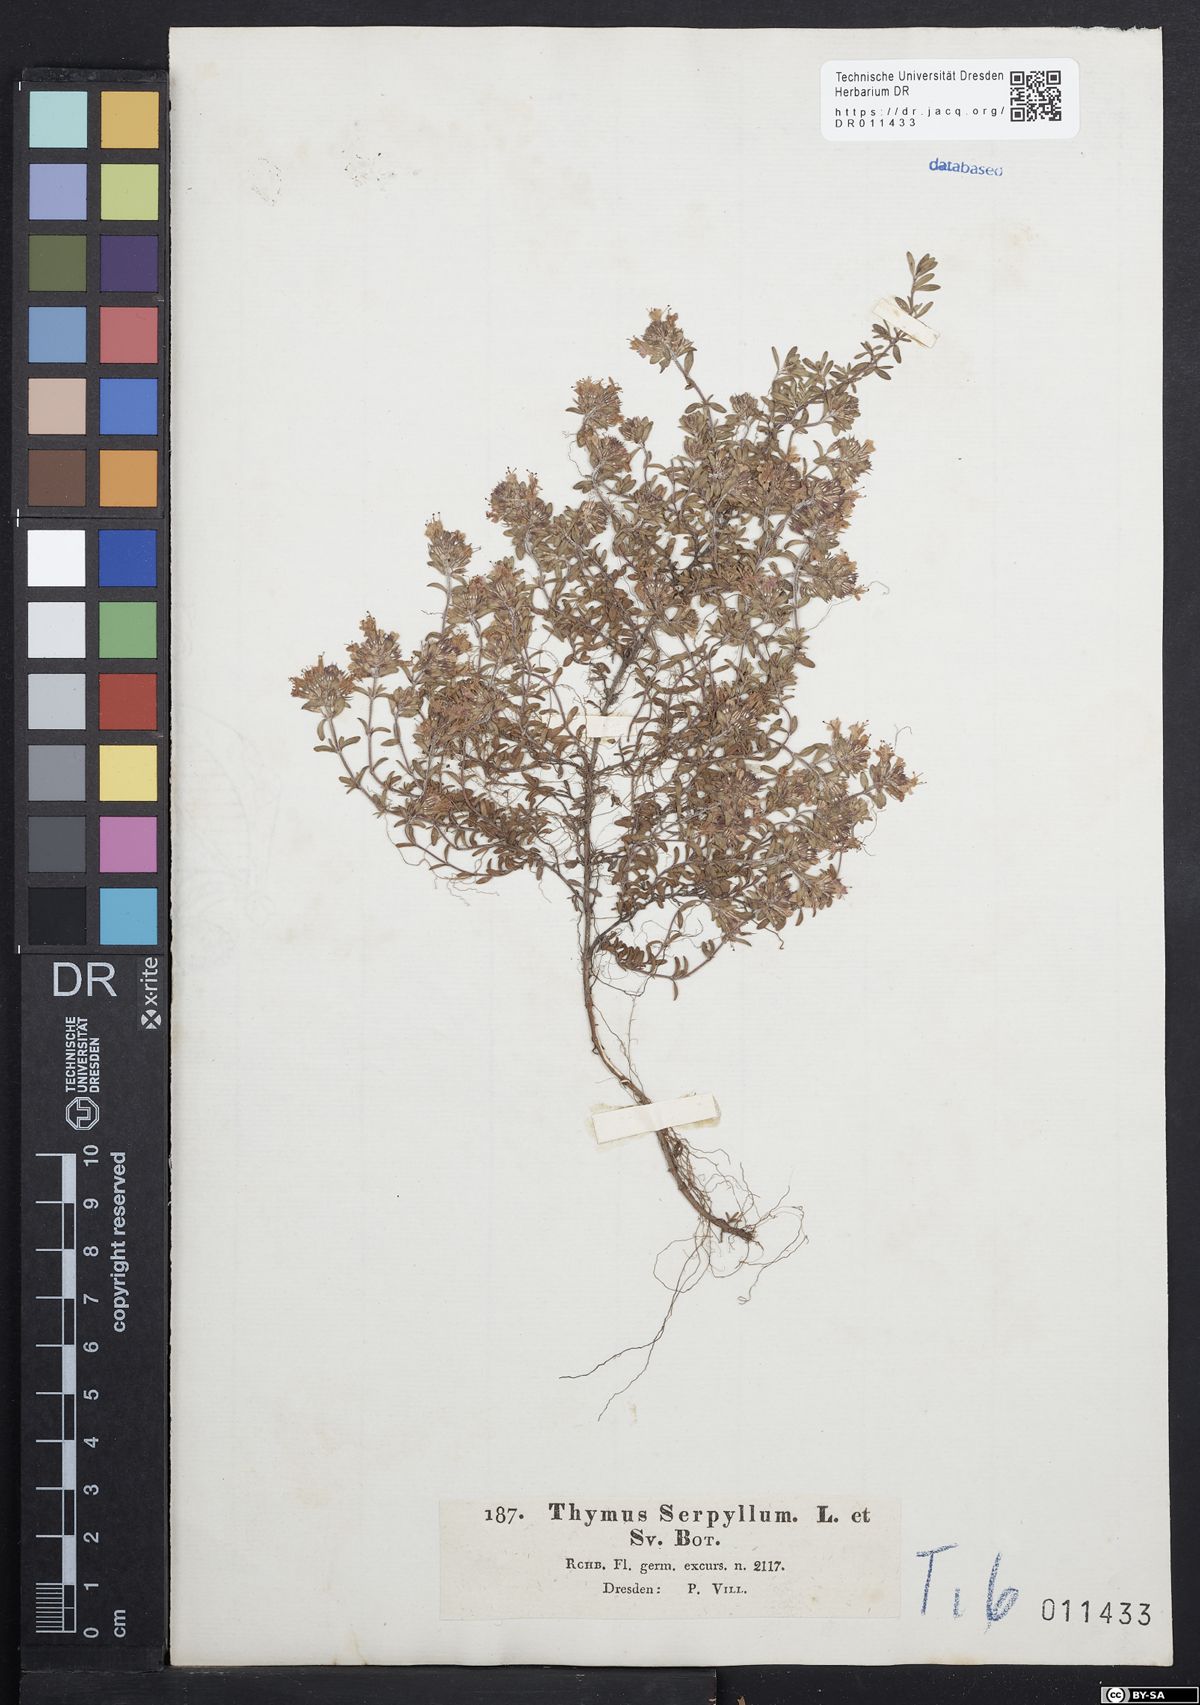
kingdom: Plantae
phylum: Tracheophyta
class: Magnoliopsida
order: Lamiales
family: Lamiaceae
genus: Thymus
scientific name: Thymus serpyllum
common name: Breckland thyme
